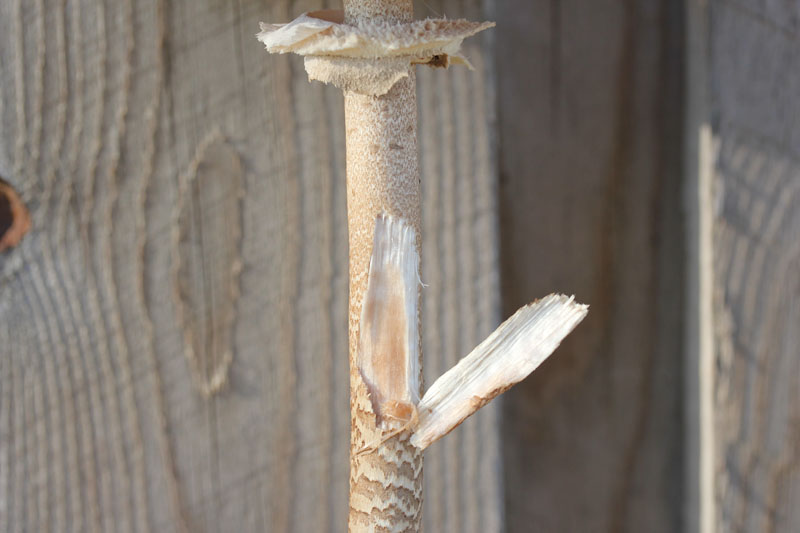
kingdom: Fungi
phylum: Basidiomycota
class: Agaricomycetes
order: Agaricales
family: Agaricaceae
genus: Macrolepiota
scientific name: Macrolepiota fuliginosa
